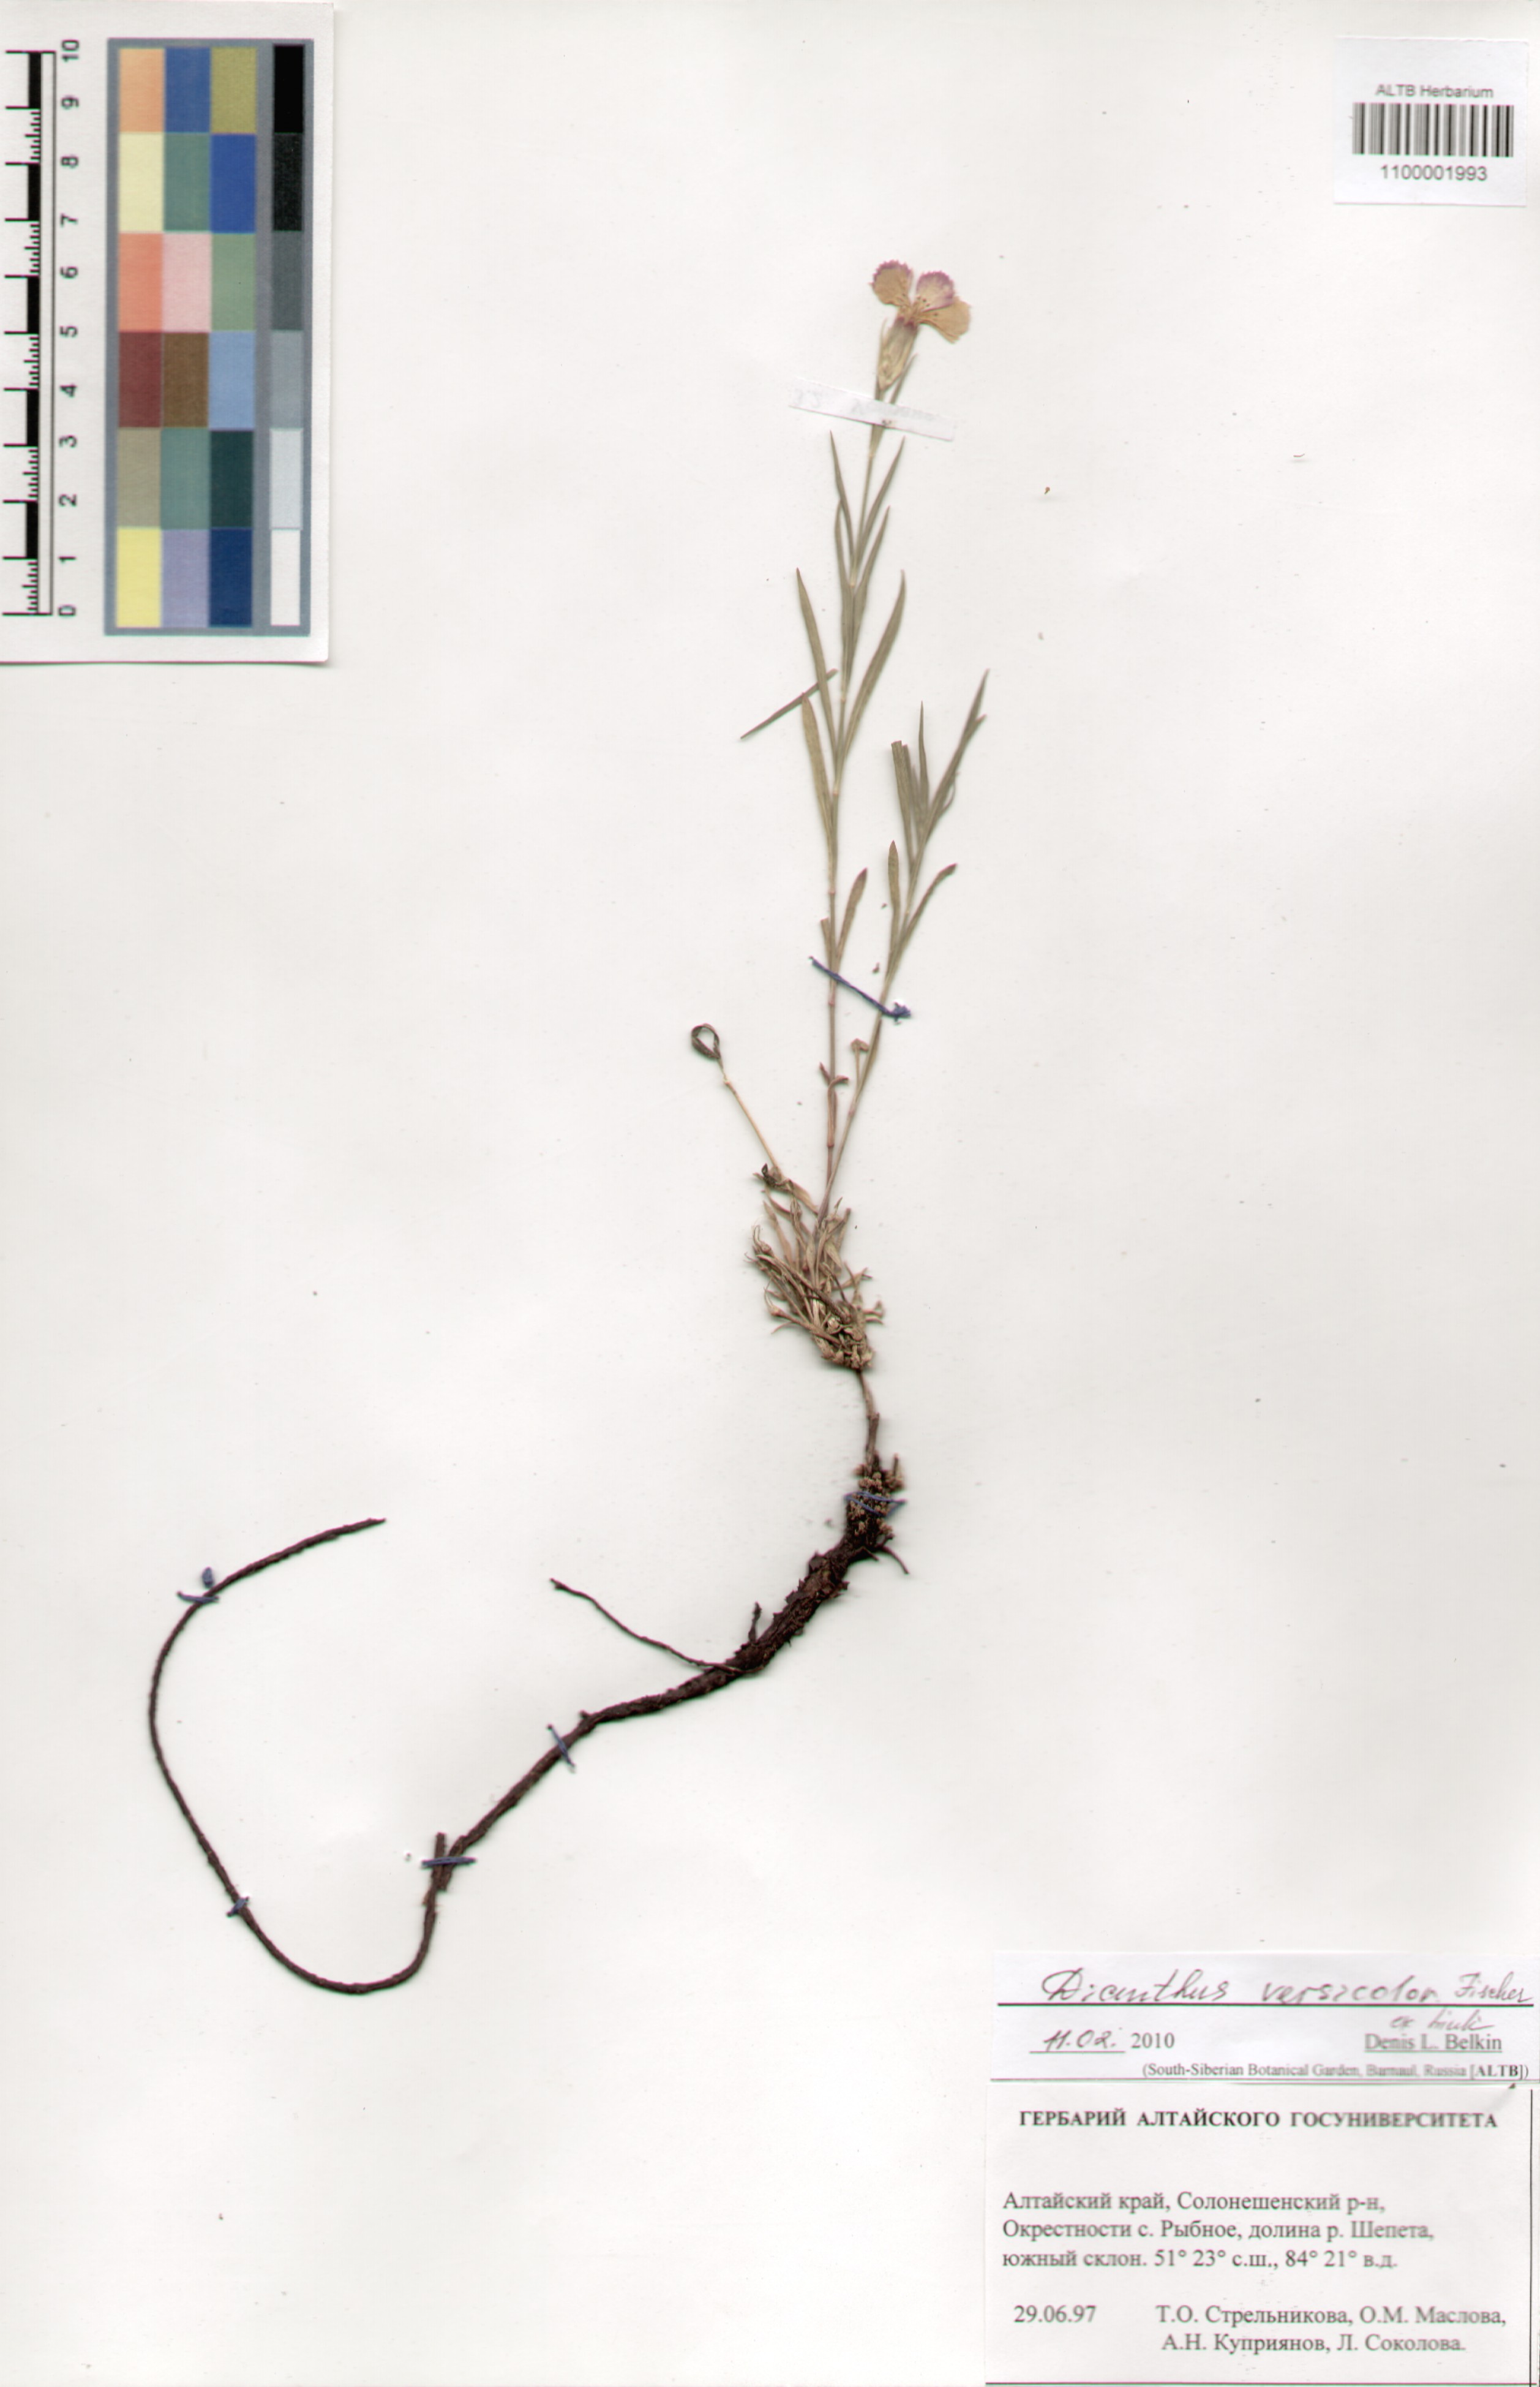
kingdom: Plantae
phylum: Tracheophyta
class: Magnoliopsida
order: Caryophyllales
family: Caryophyllaceae
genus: Dianthus
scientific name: Dianthus chinensis
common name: Rainbow pink
